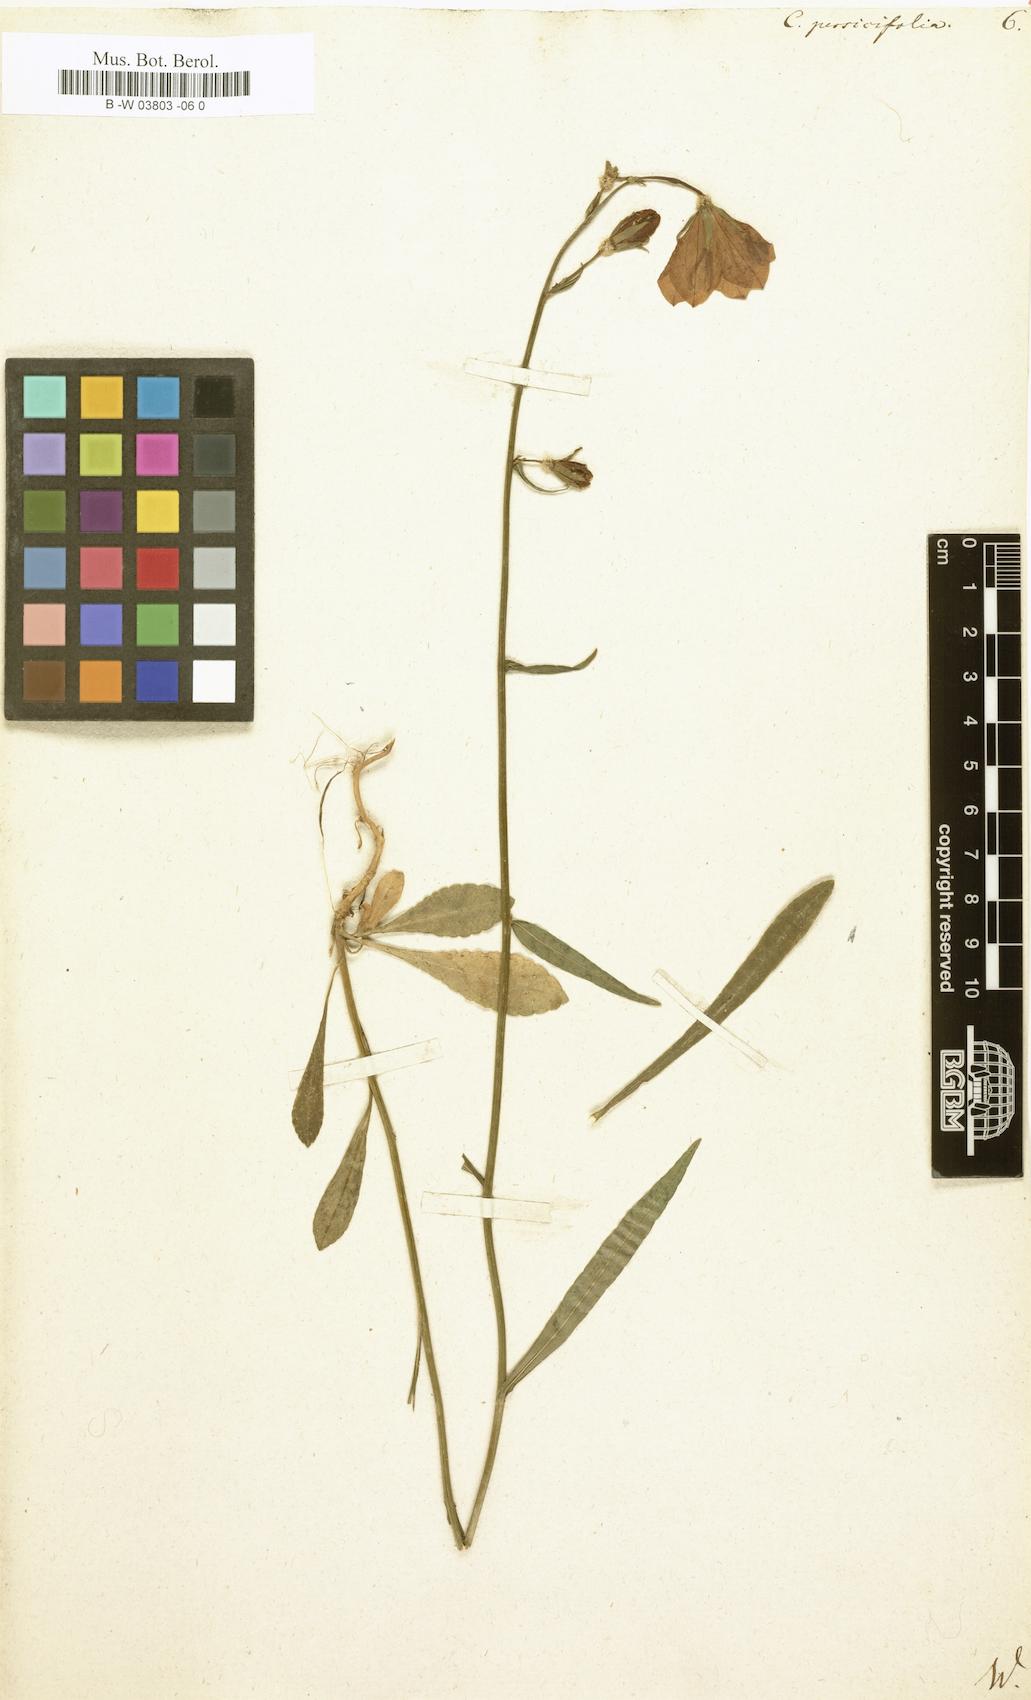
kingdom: Plantae
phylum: Tracheophyta
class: Magnoliopsida
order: Asterales
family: Campanulaceae
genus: Campanula
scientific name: Campanula persicifolia
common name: Peach-leaved bellflower
